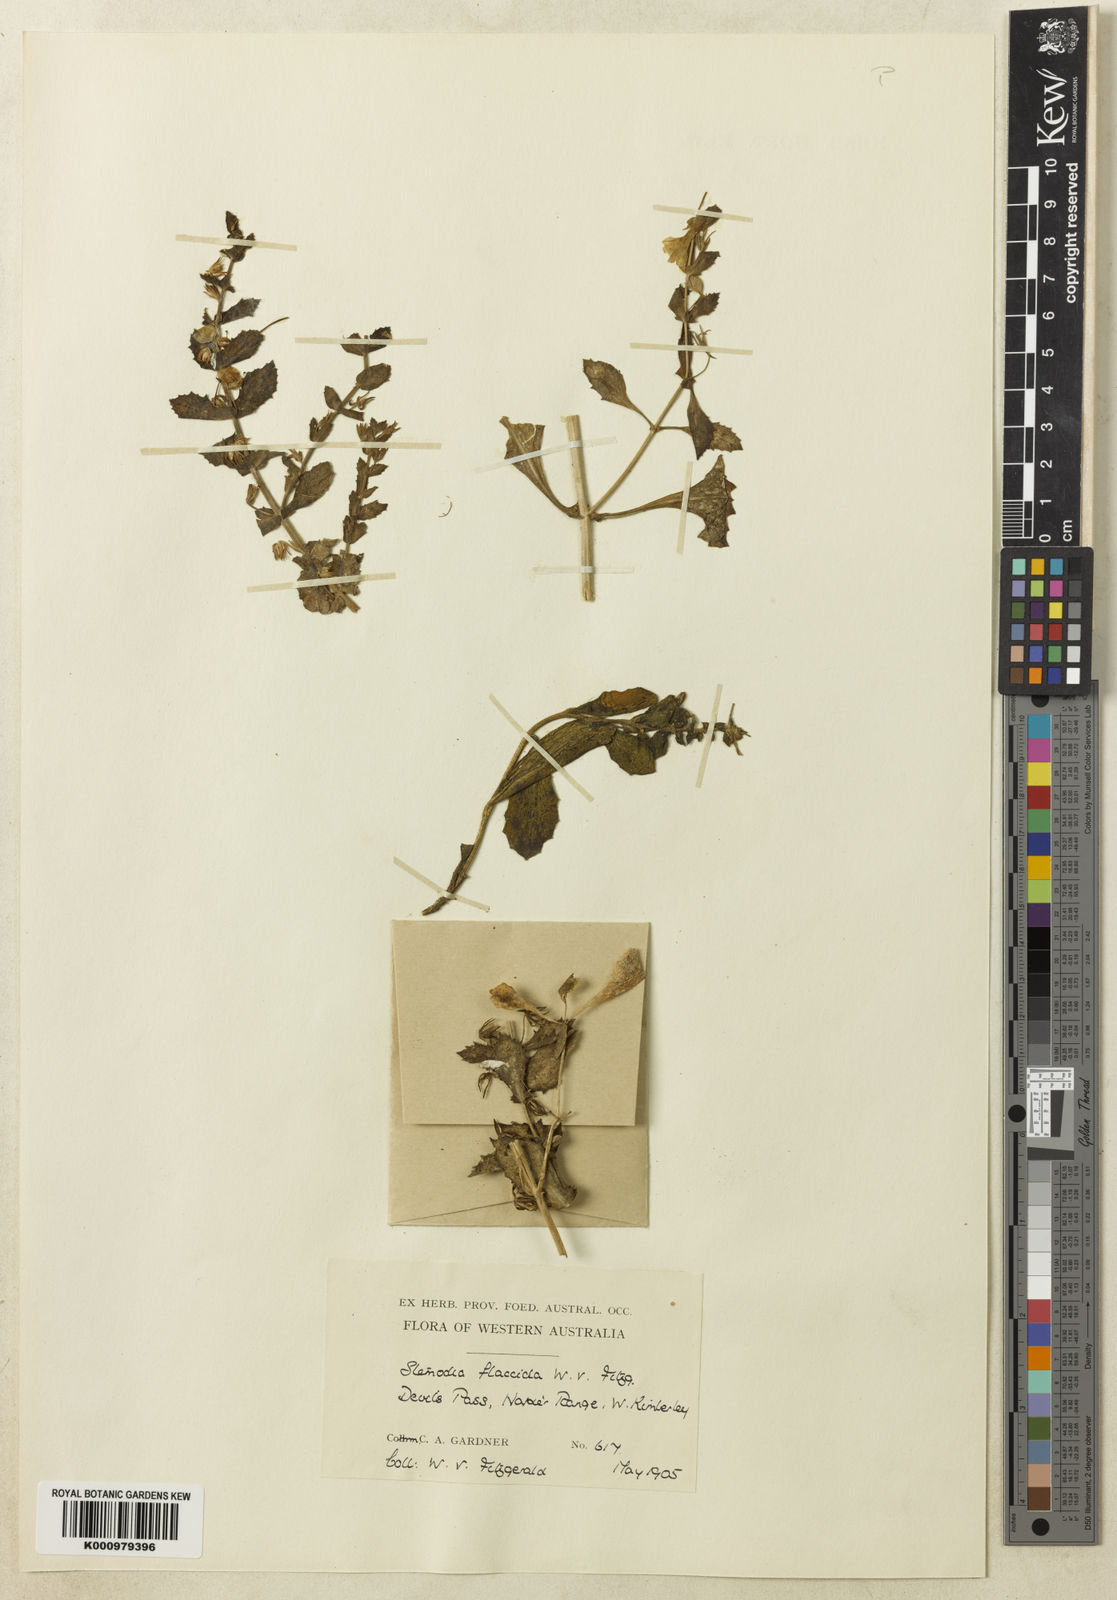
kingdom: Plantae
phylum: Tracheophyta
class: Magnoliopsida
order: Lamiales
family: Plantaginaceae
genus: Stemodia
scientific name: Stemodia
